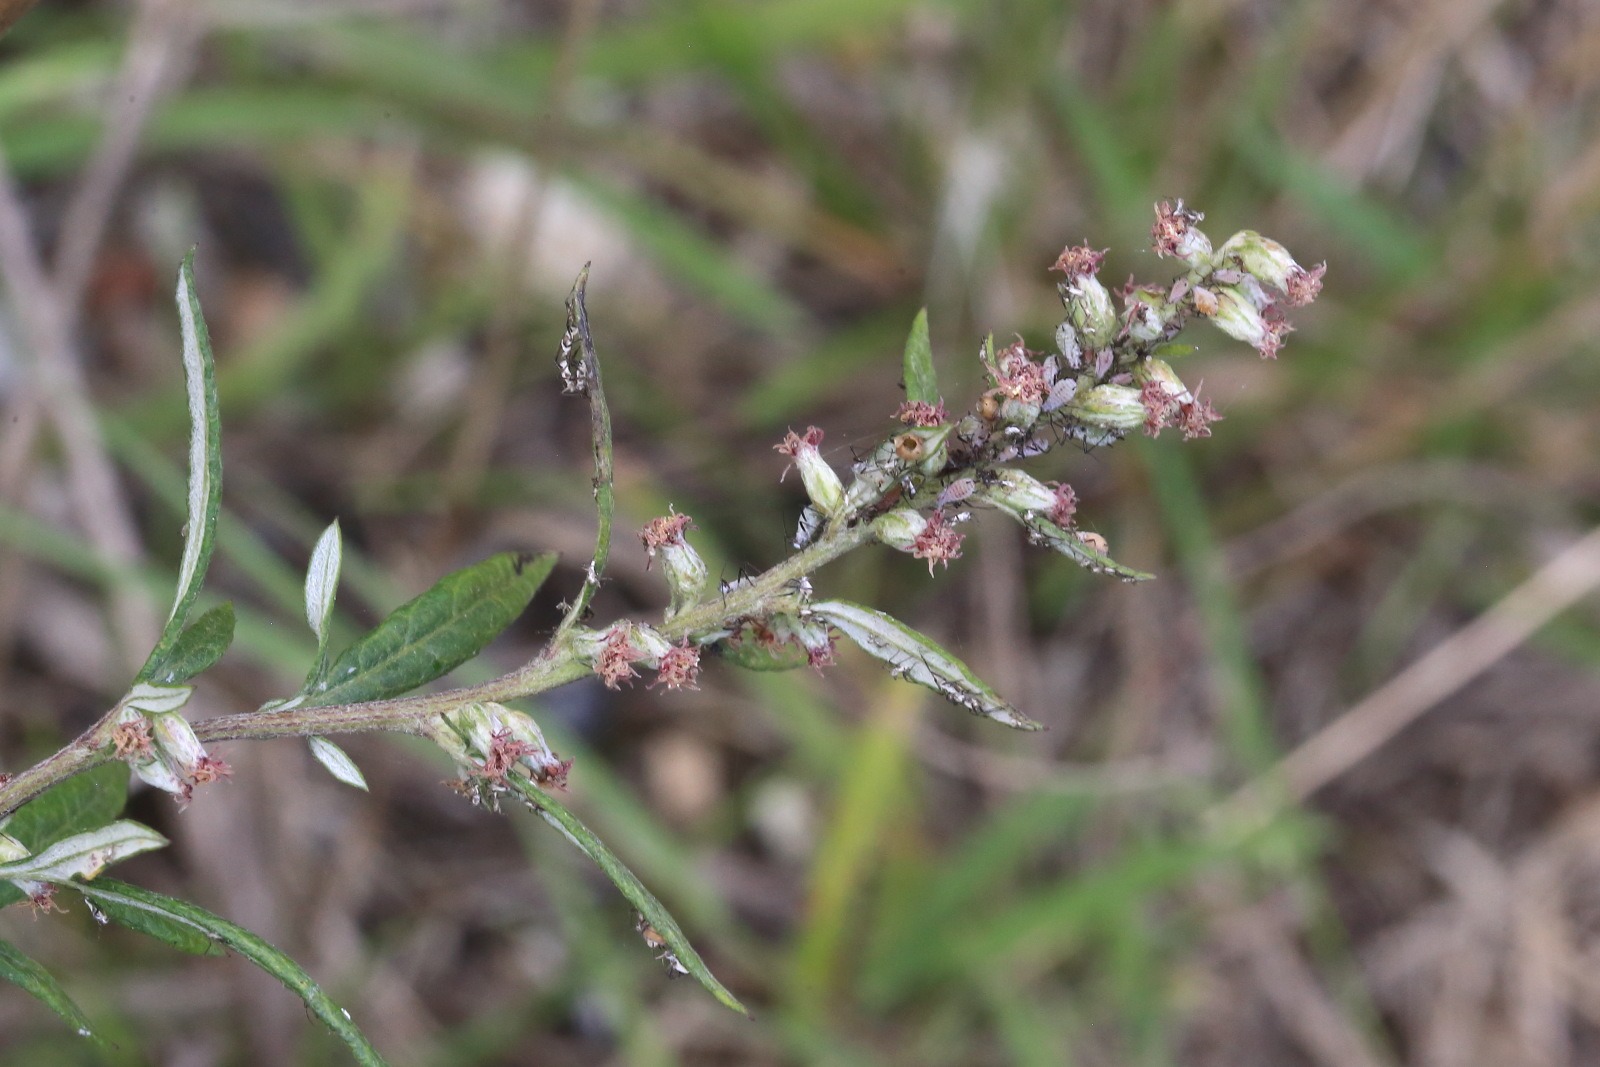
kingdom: Plantae
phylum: Tracheophyta
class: Magnoliopsida
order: Asterales
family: Asteraceae
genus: Artemisia
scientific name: Artemisia vulgaris
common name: Grå-bynke
